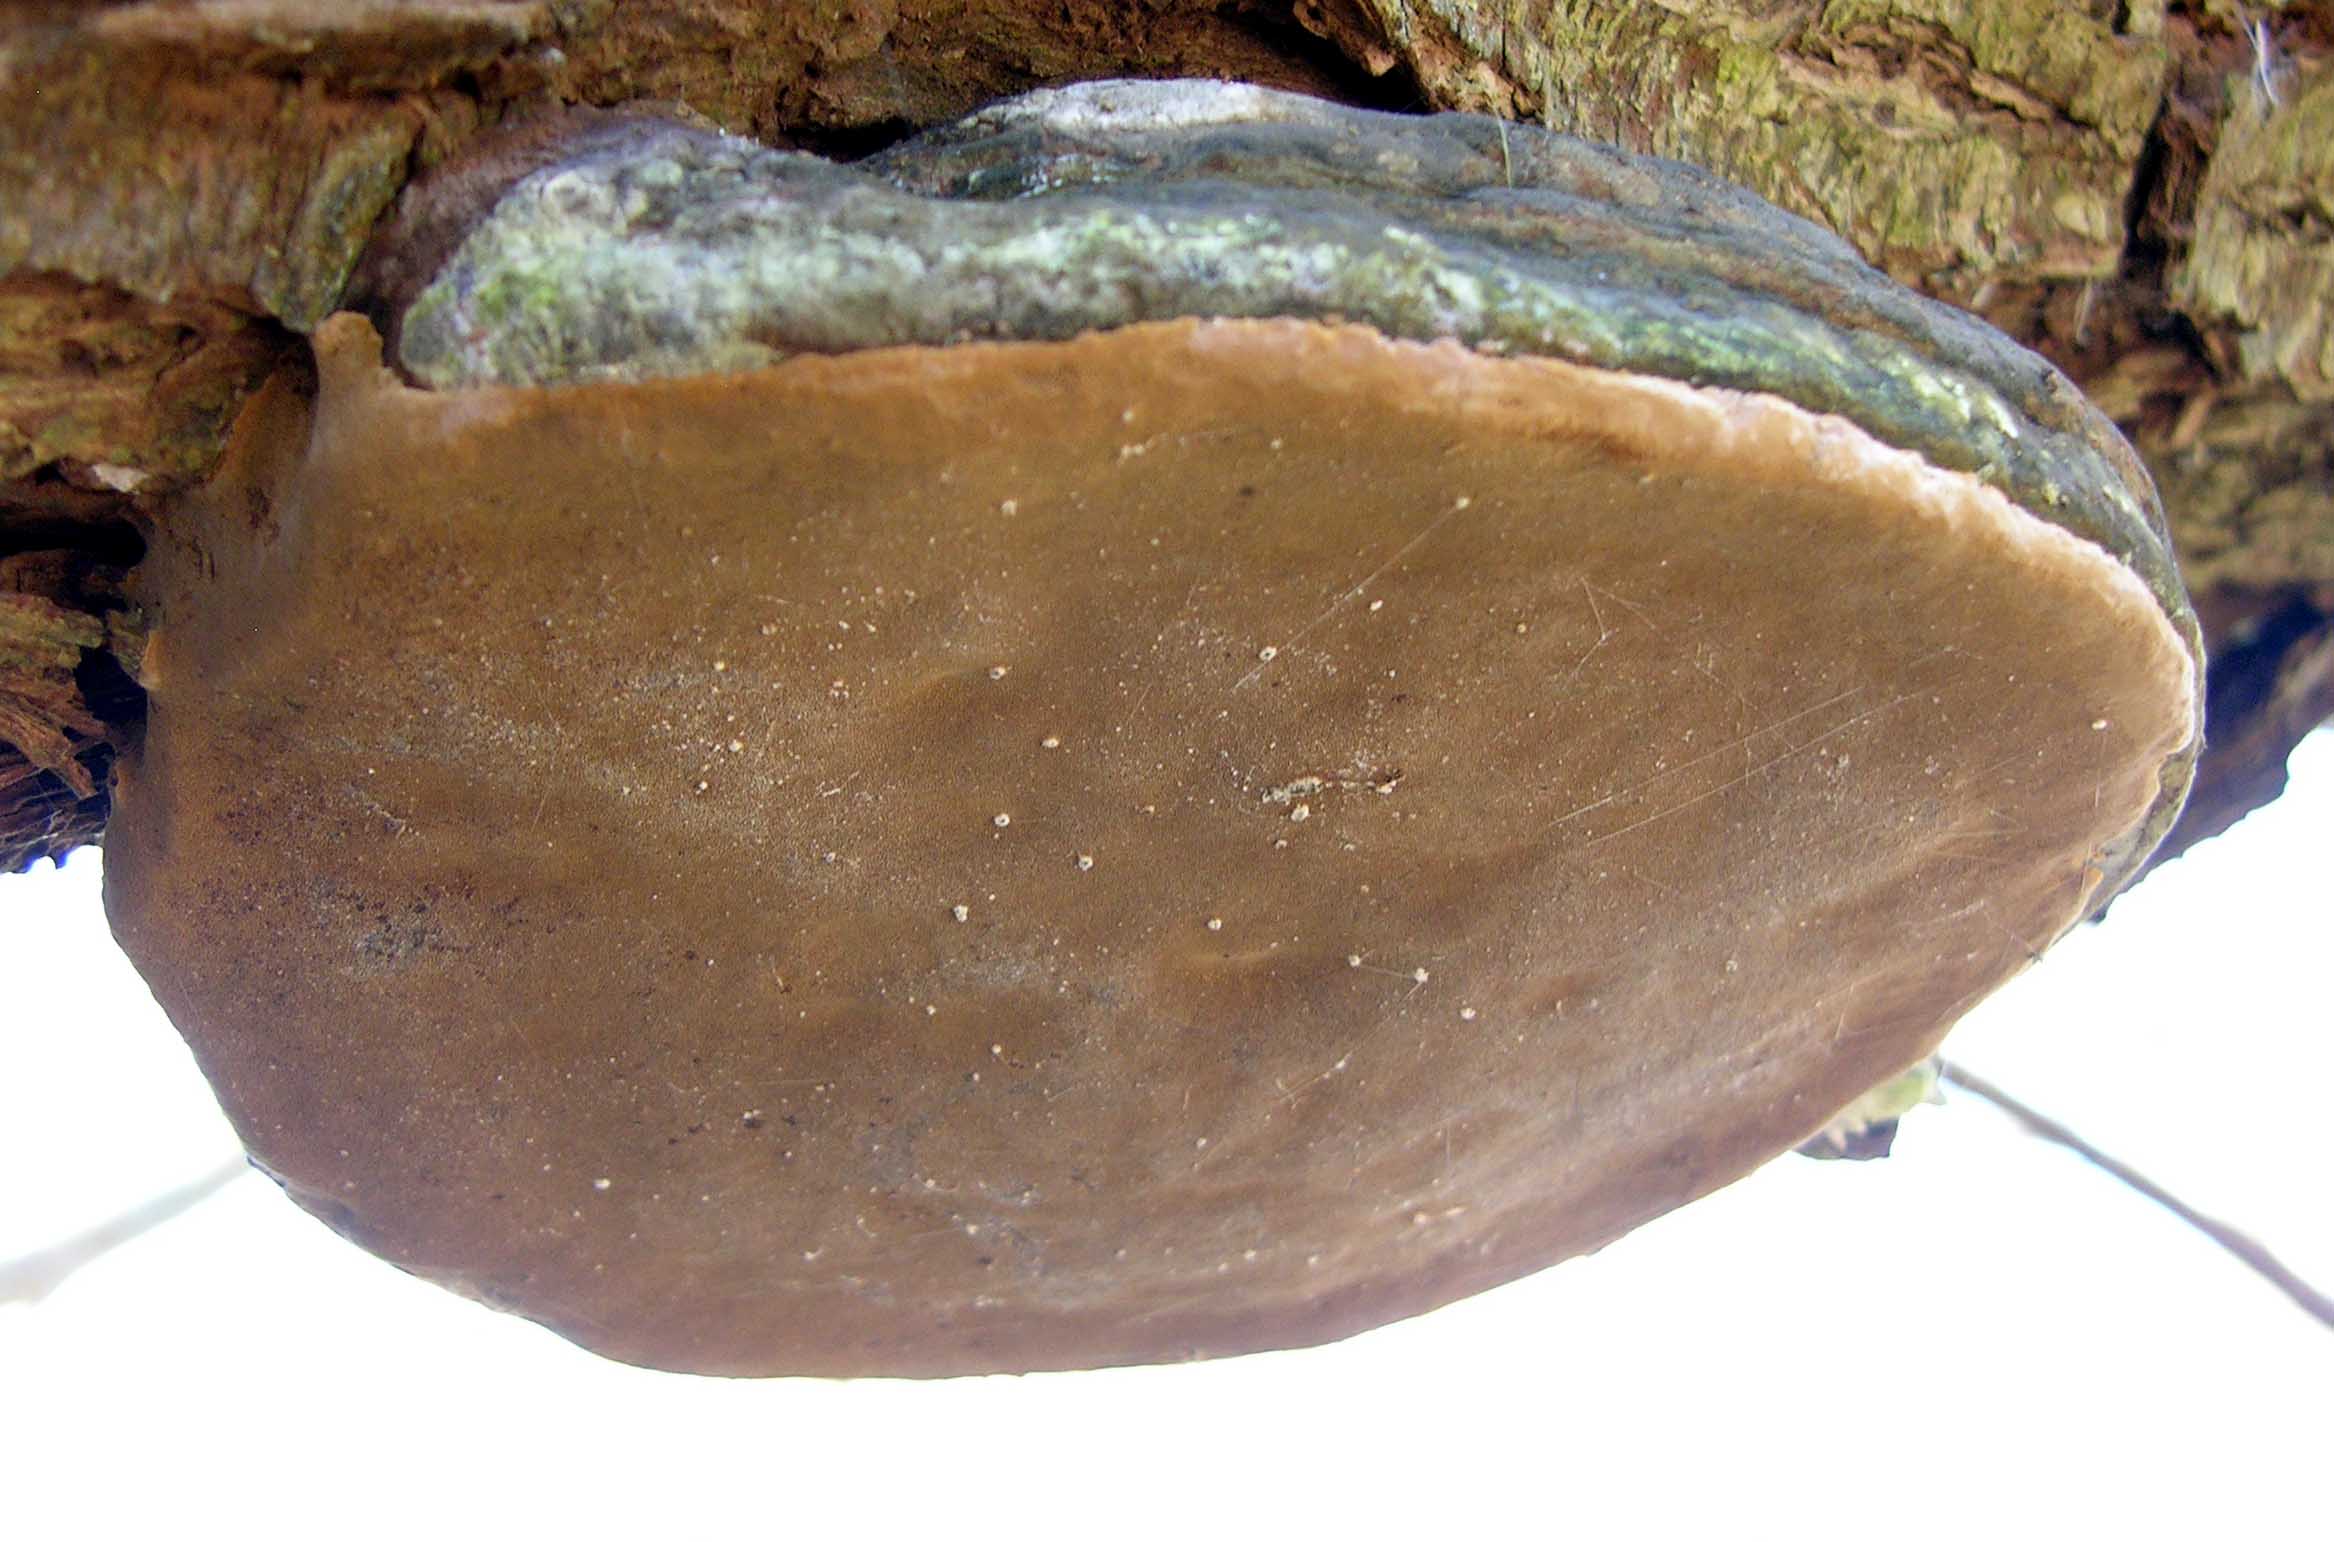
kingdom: Fungi
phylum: Basidiomycota
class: Agaricomycetes
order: Hymenochaetales
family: Hymenochaetaceae
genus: Phellinus
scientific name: Phellinus igniarius
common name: almindelig ildporesvamp
